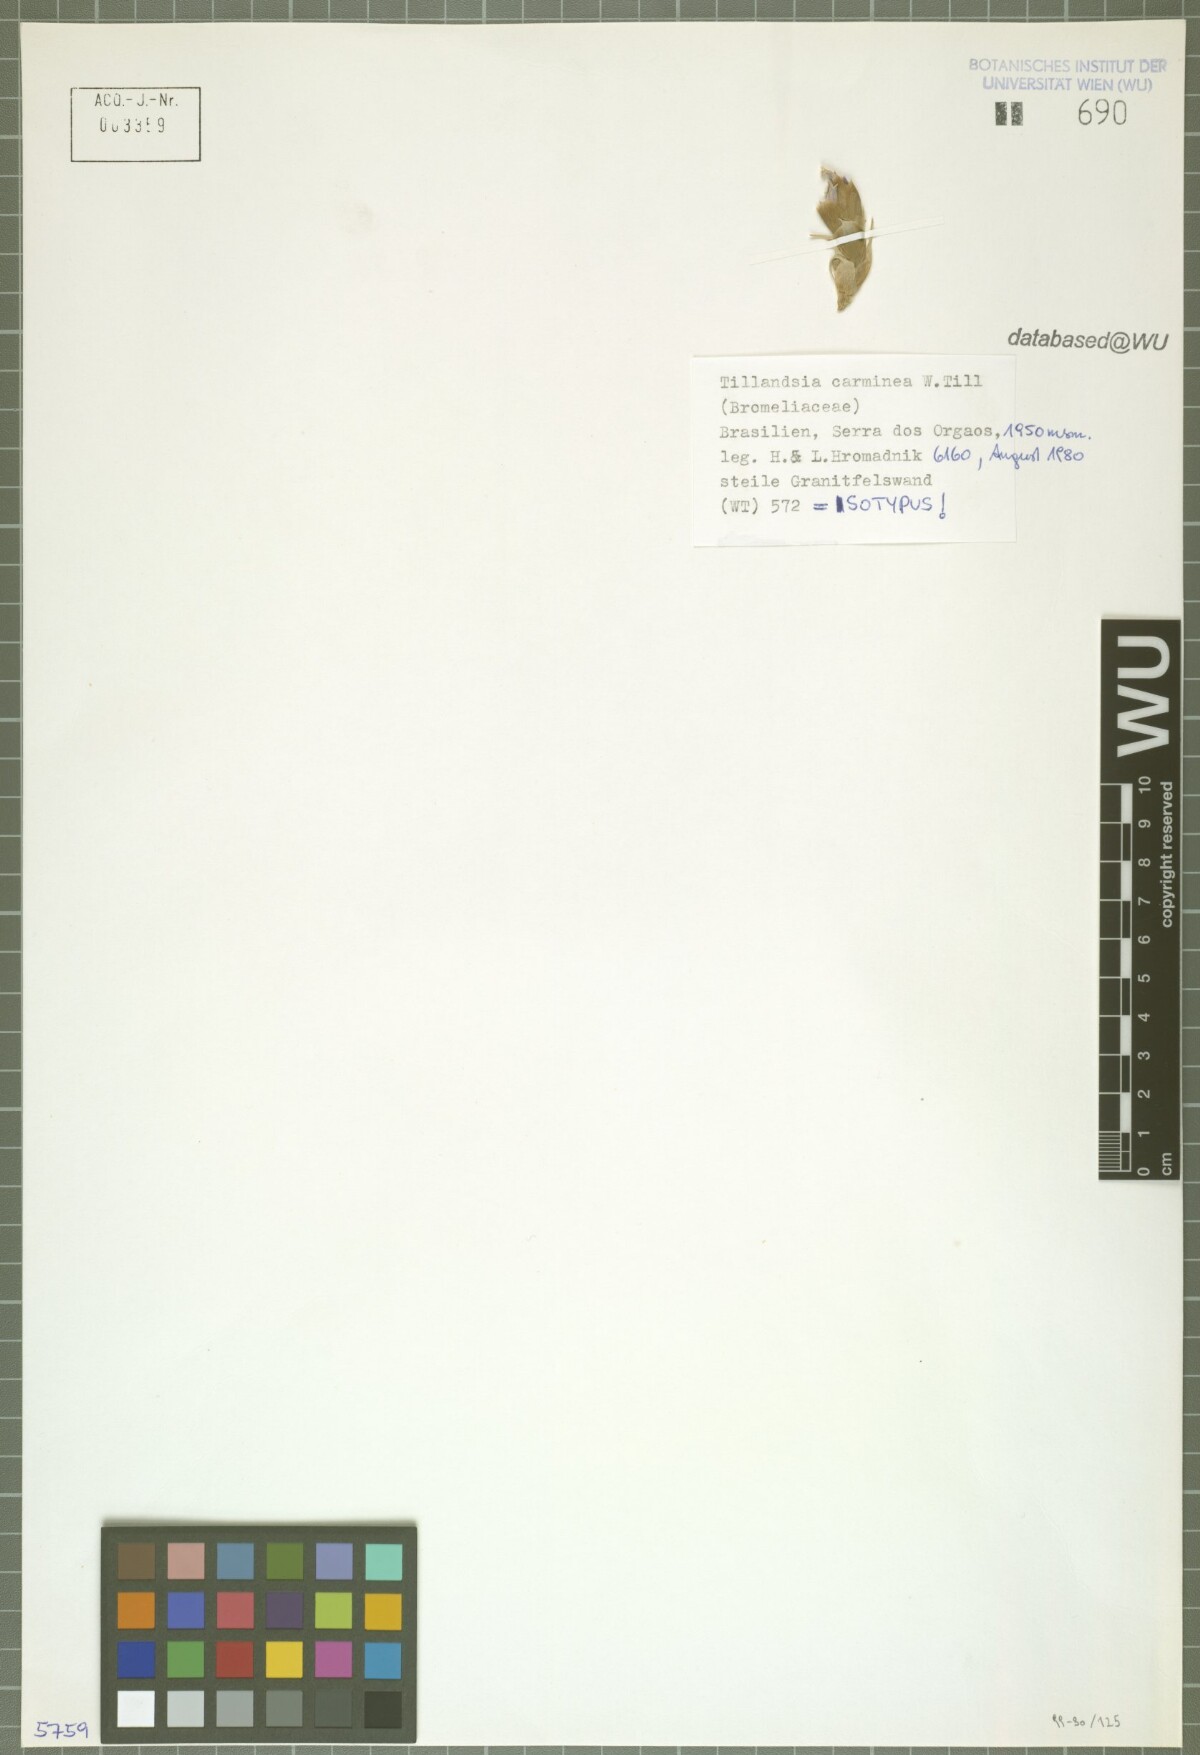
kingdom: Plantae
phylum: Tracheophyta
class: Liliopsida
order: Poales
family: Bromeliaceae
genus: Tillandsia
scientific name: Tillandsia carminea
